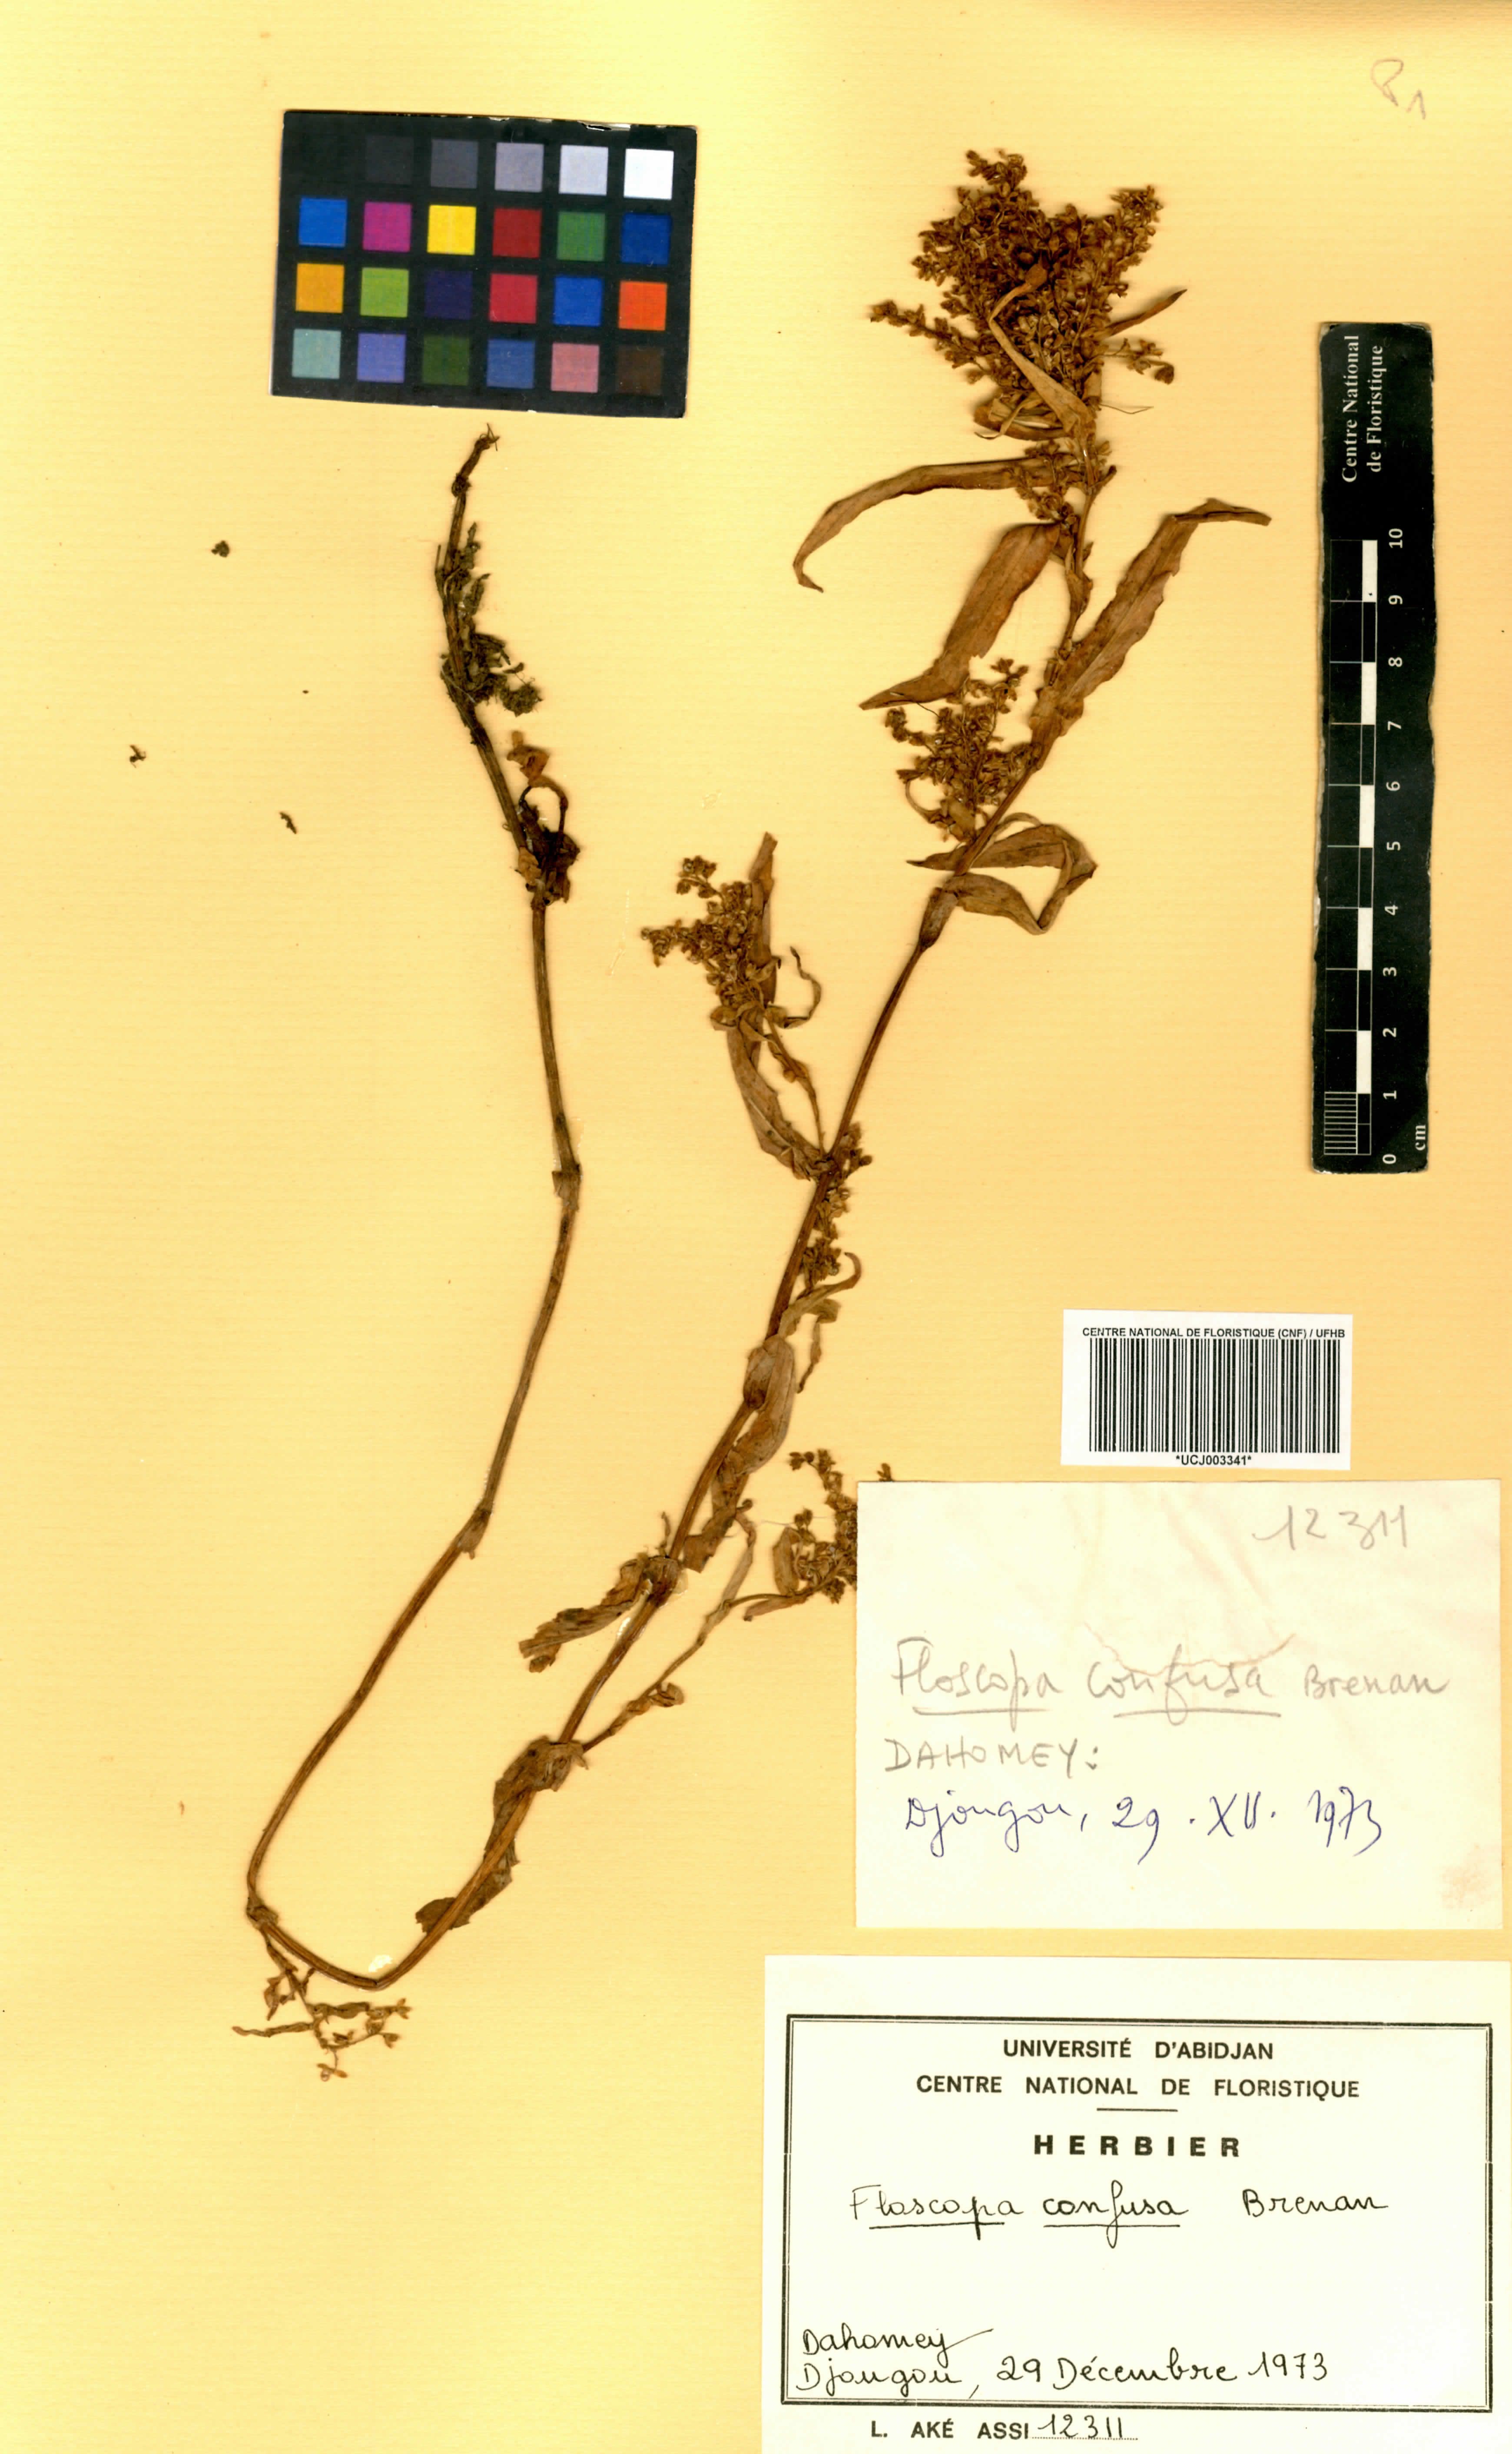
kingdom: Plantae
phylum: Tracheophyta
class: Liliopsida
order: Commelinales
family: Commelinaceae
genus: Floscopa
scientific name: Floscopa confusa
